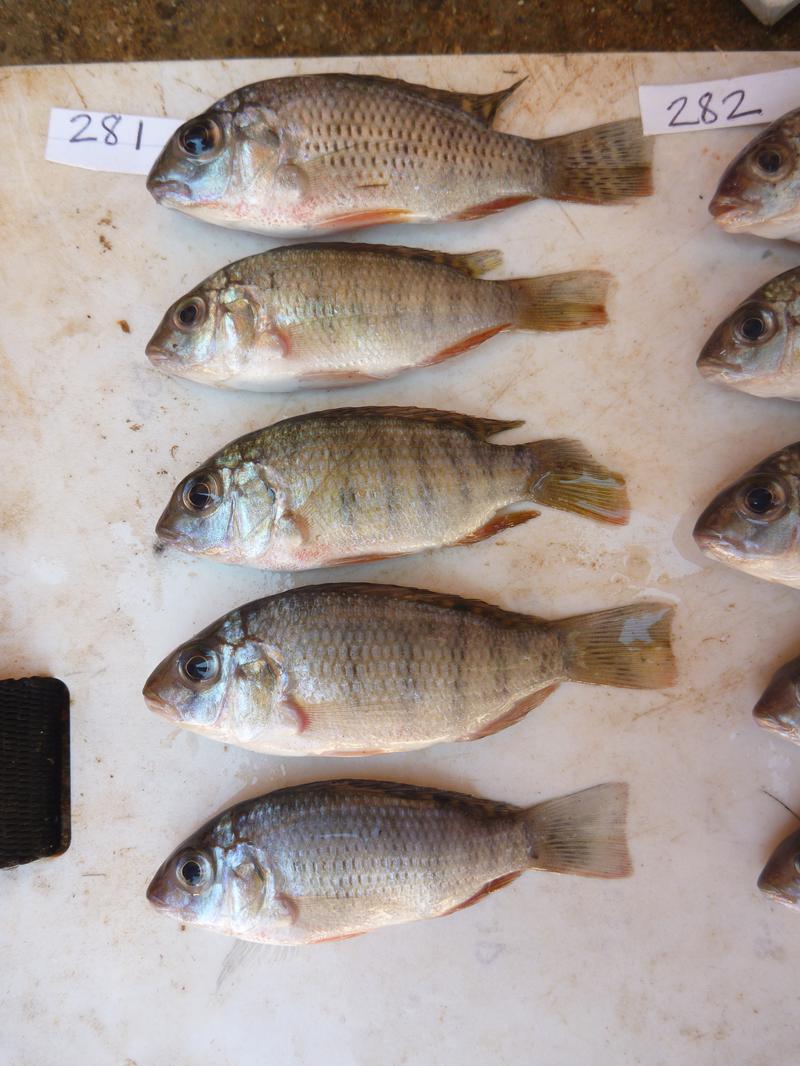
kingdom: Animalia
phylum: Chordata
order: Perciformes
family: Cichlidae
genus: Coptodon
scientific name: Coptodon rendalli
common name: Redbreast tilapia
